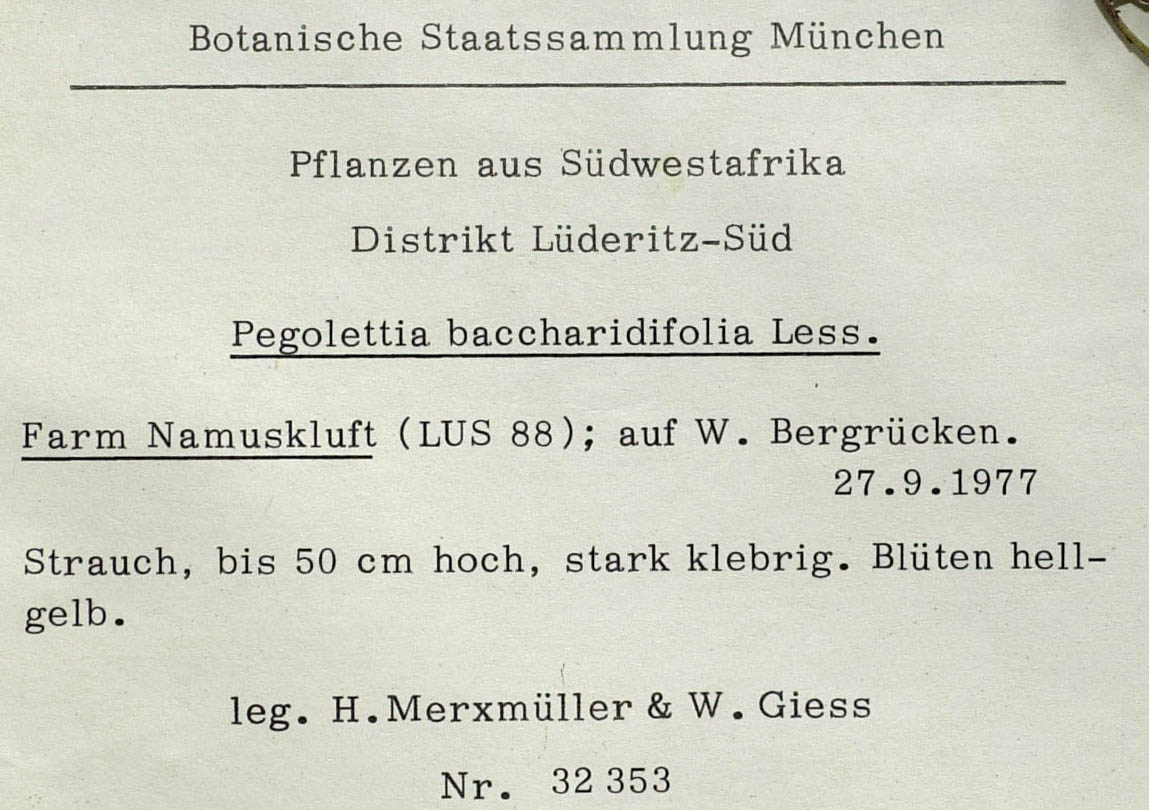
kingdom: Plantae
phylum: Tracheophyta
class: Magnoliopsida
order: Asterales
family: Asteraceae
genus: Pegolettia
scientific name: Pegolettia gariepina
